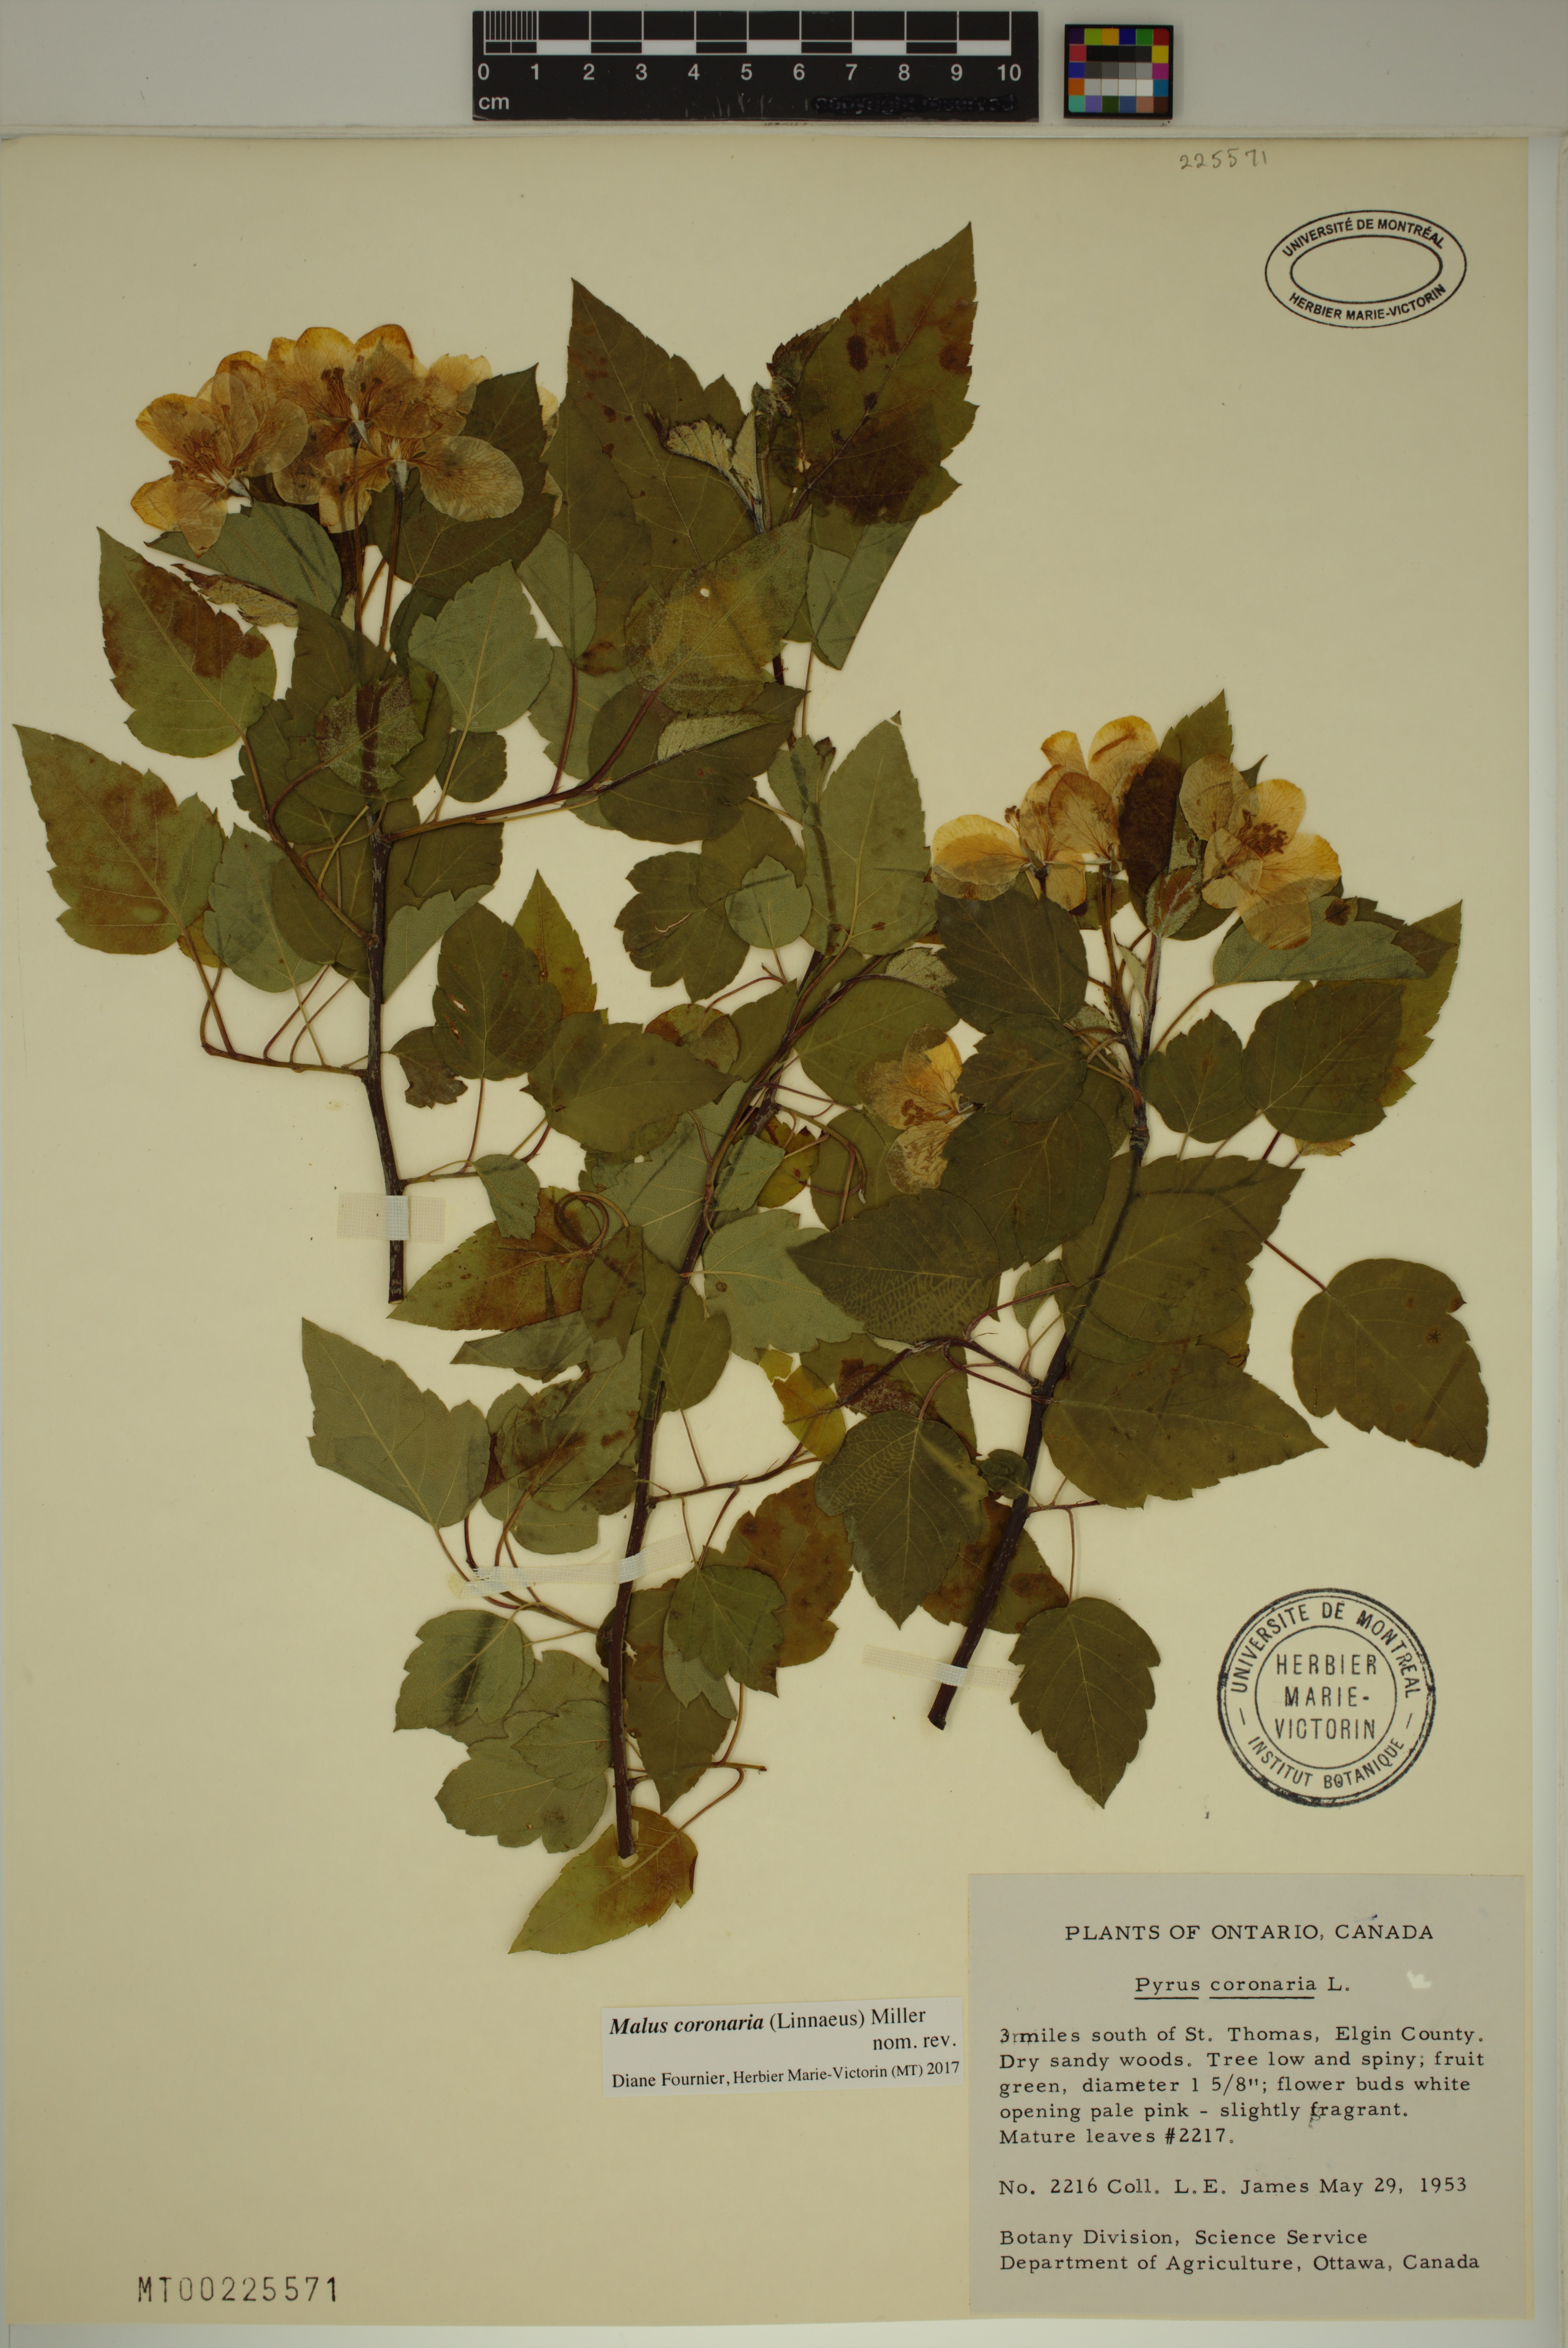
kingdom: Plantae
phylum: Tracheophyta
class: Magnoliopsida
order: Rosales
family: Rosaceae
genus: Malus
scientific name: Malus coronaria
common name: Sweet crab apple
